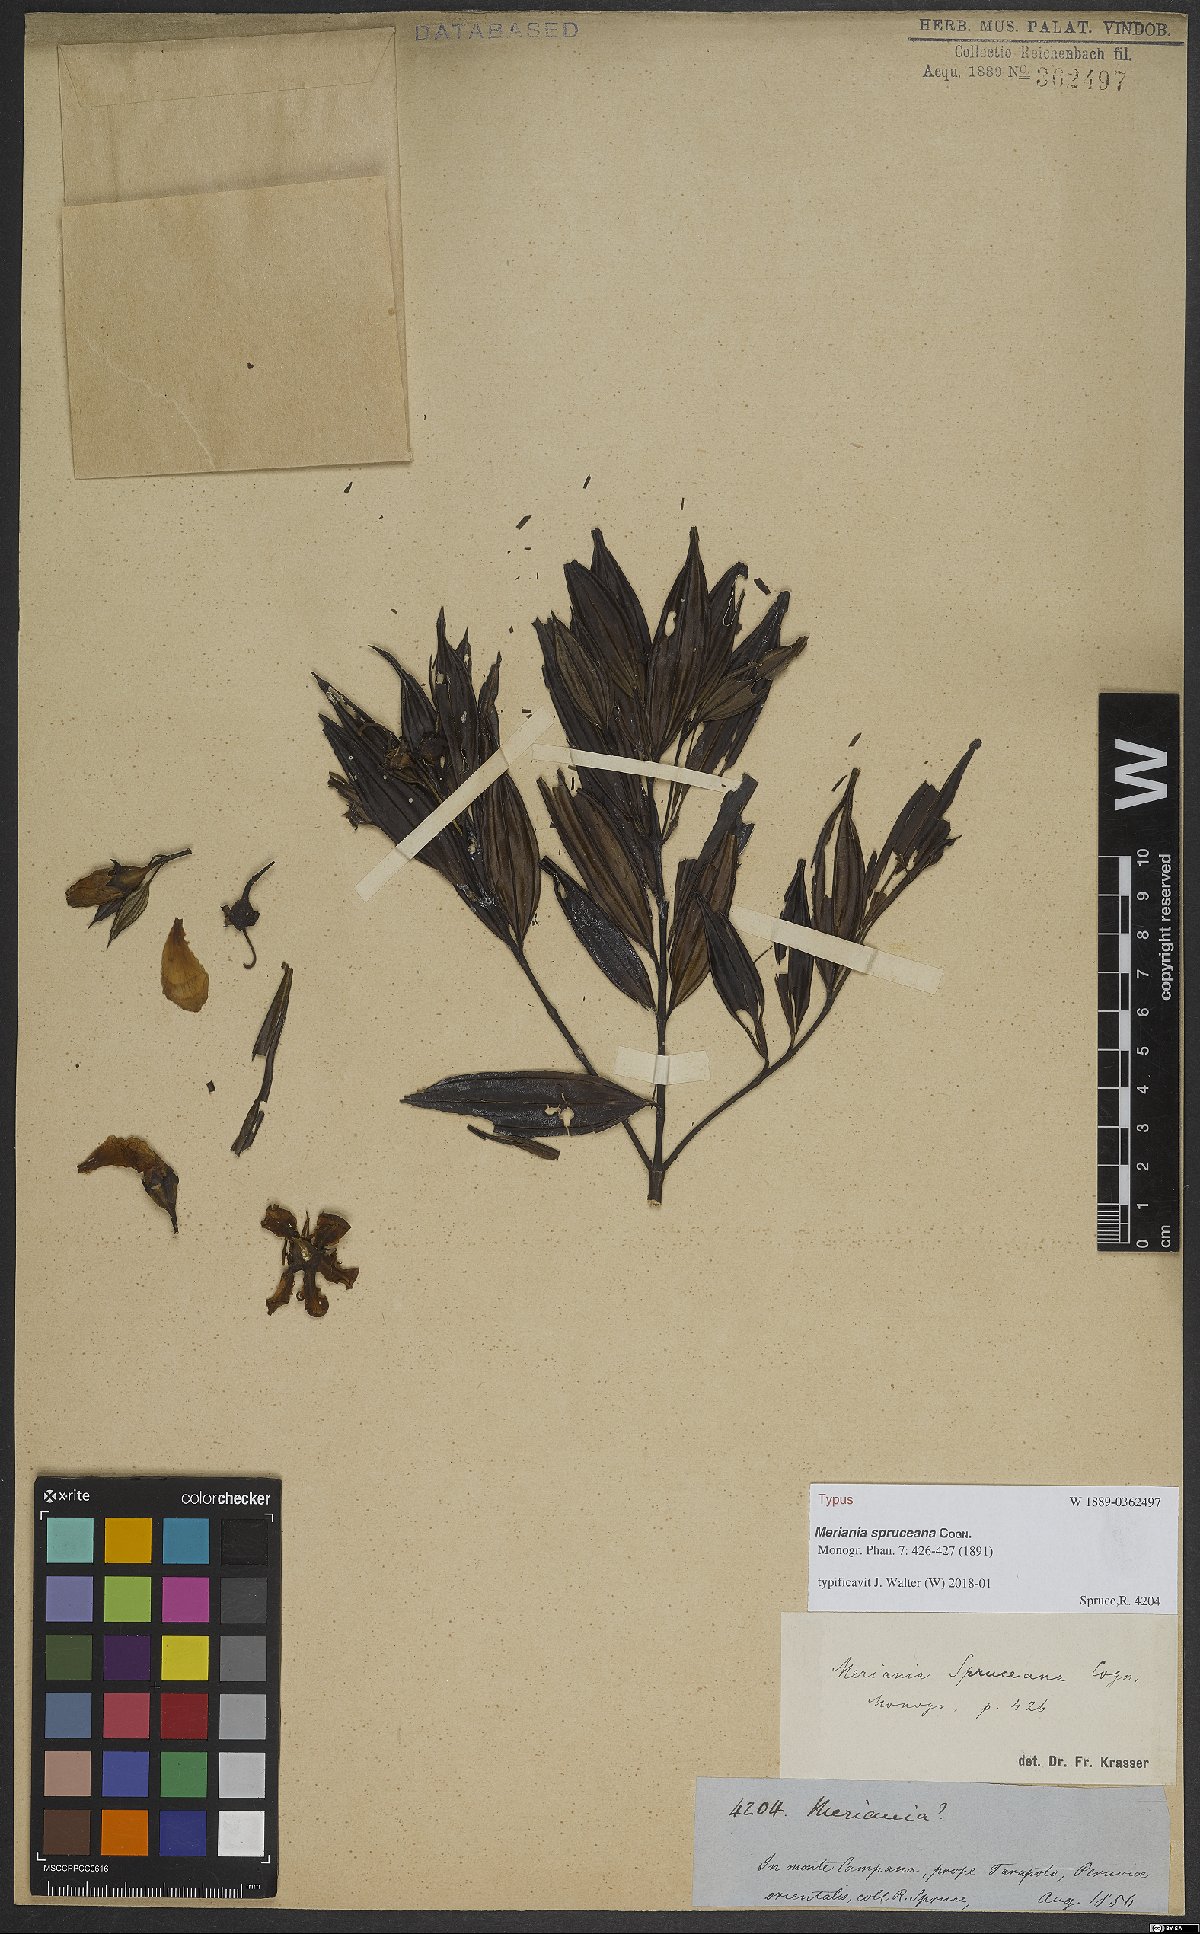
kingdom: Plantae
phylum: Tracheophyta
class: Magnoliopsida
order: Myrtales
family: Melastomataceae
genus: Meriania
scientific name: Meriania speciosa
